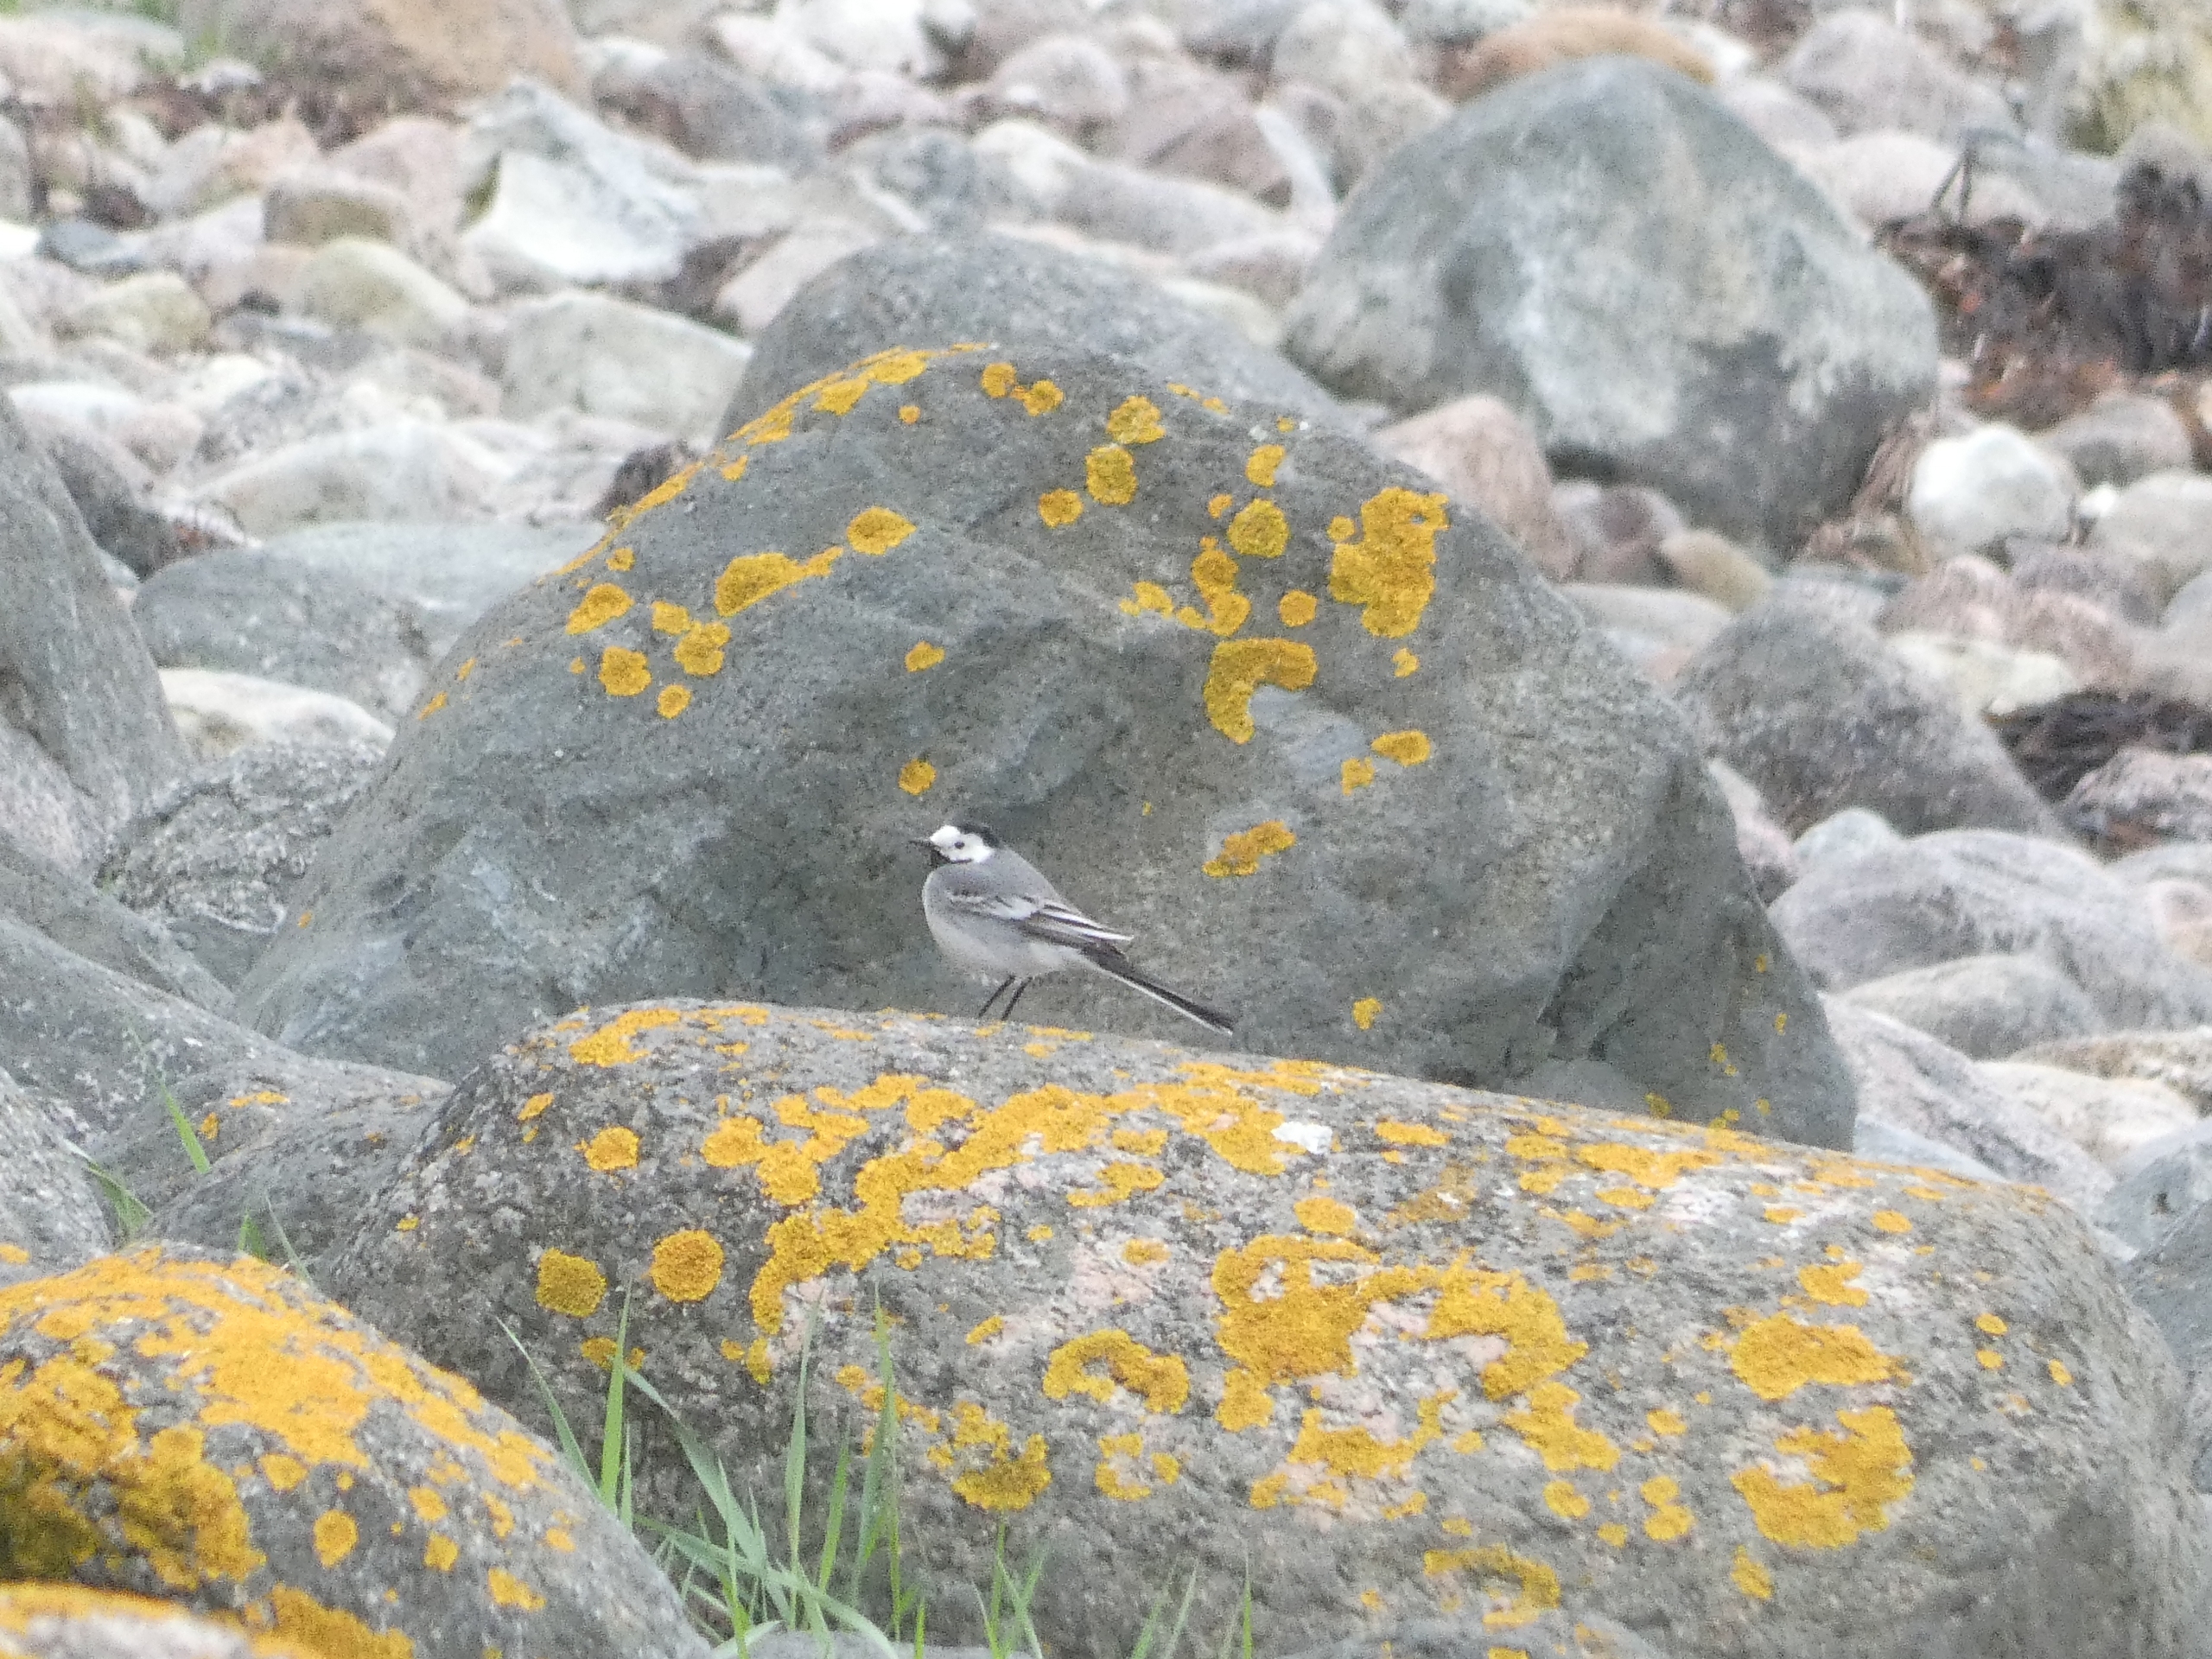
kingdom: Animalia
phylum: Chordata
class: Aves
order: Passeriformes
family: Motacillidae
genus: Motacilla
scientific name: Motacilla alba
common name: Hvid vipstjert
